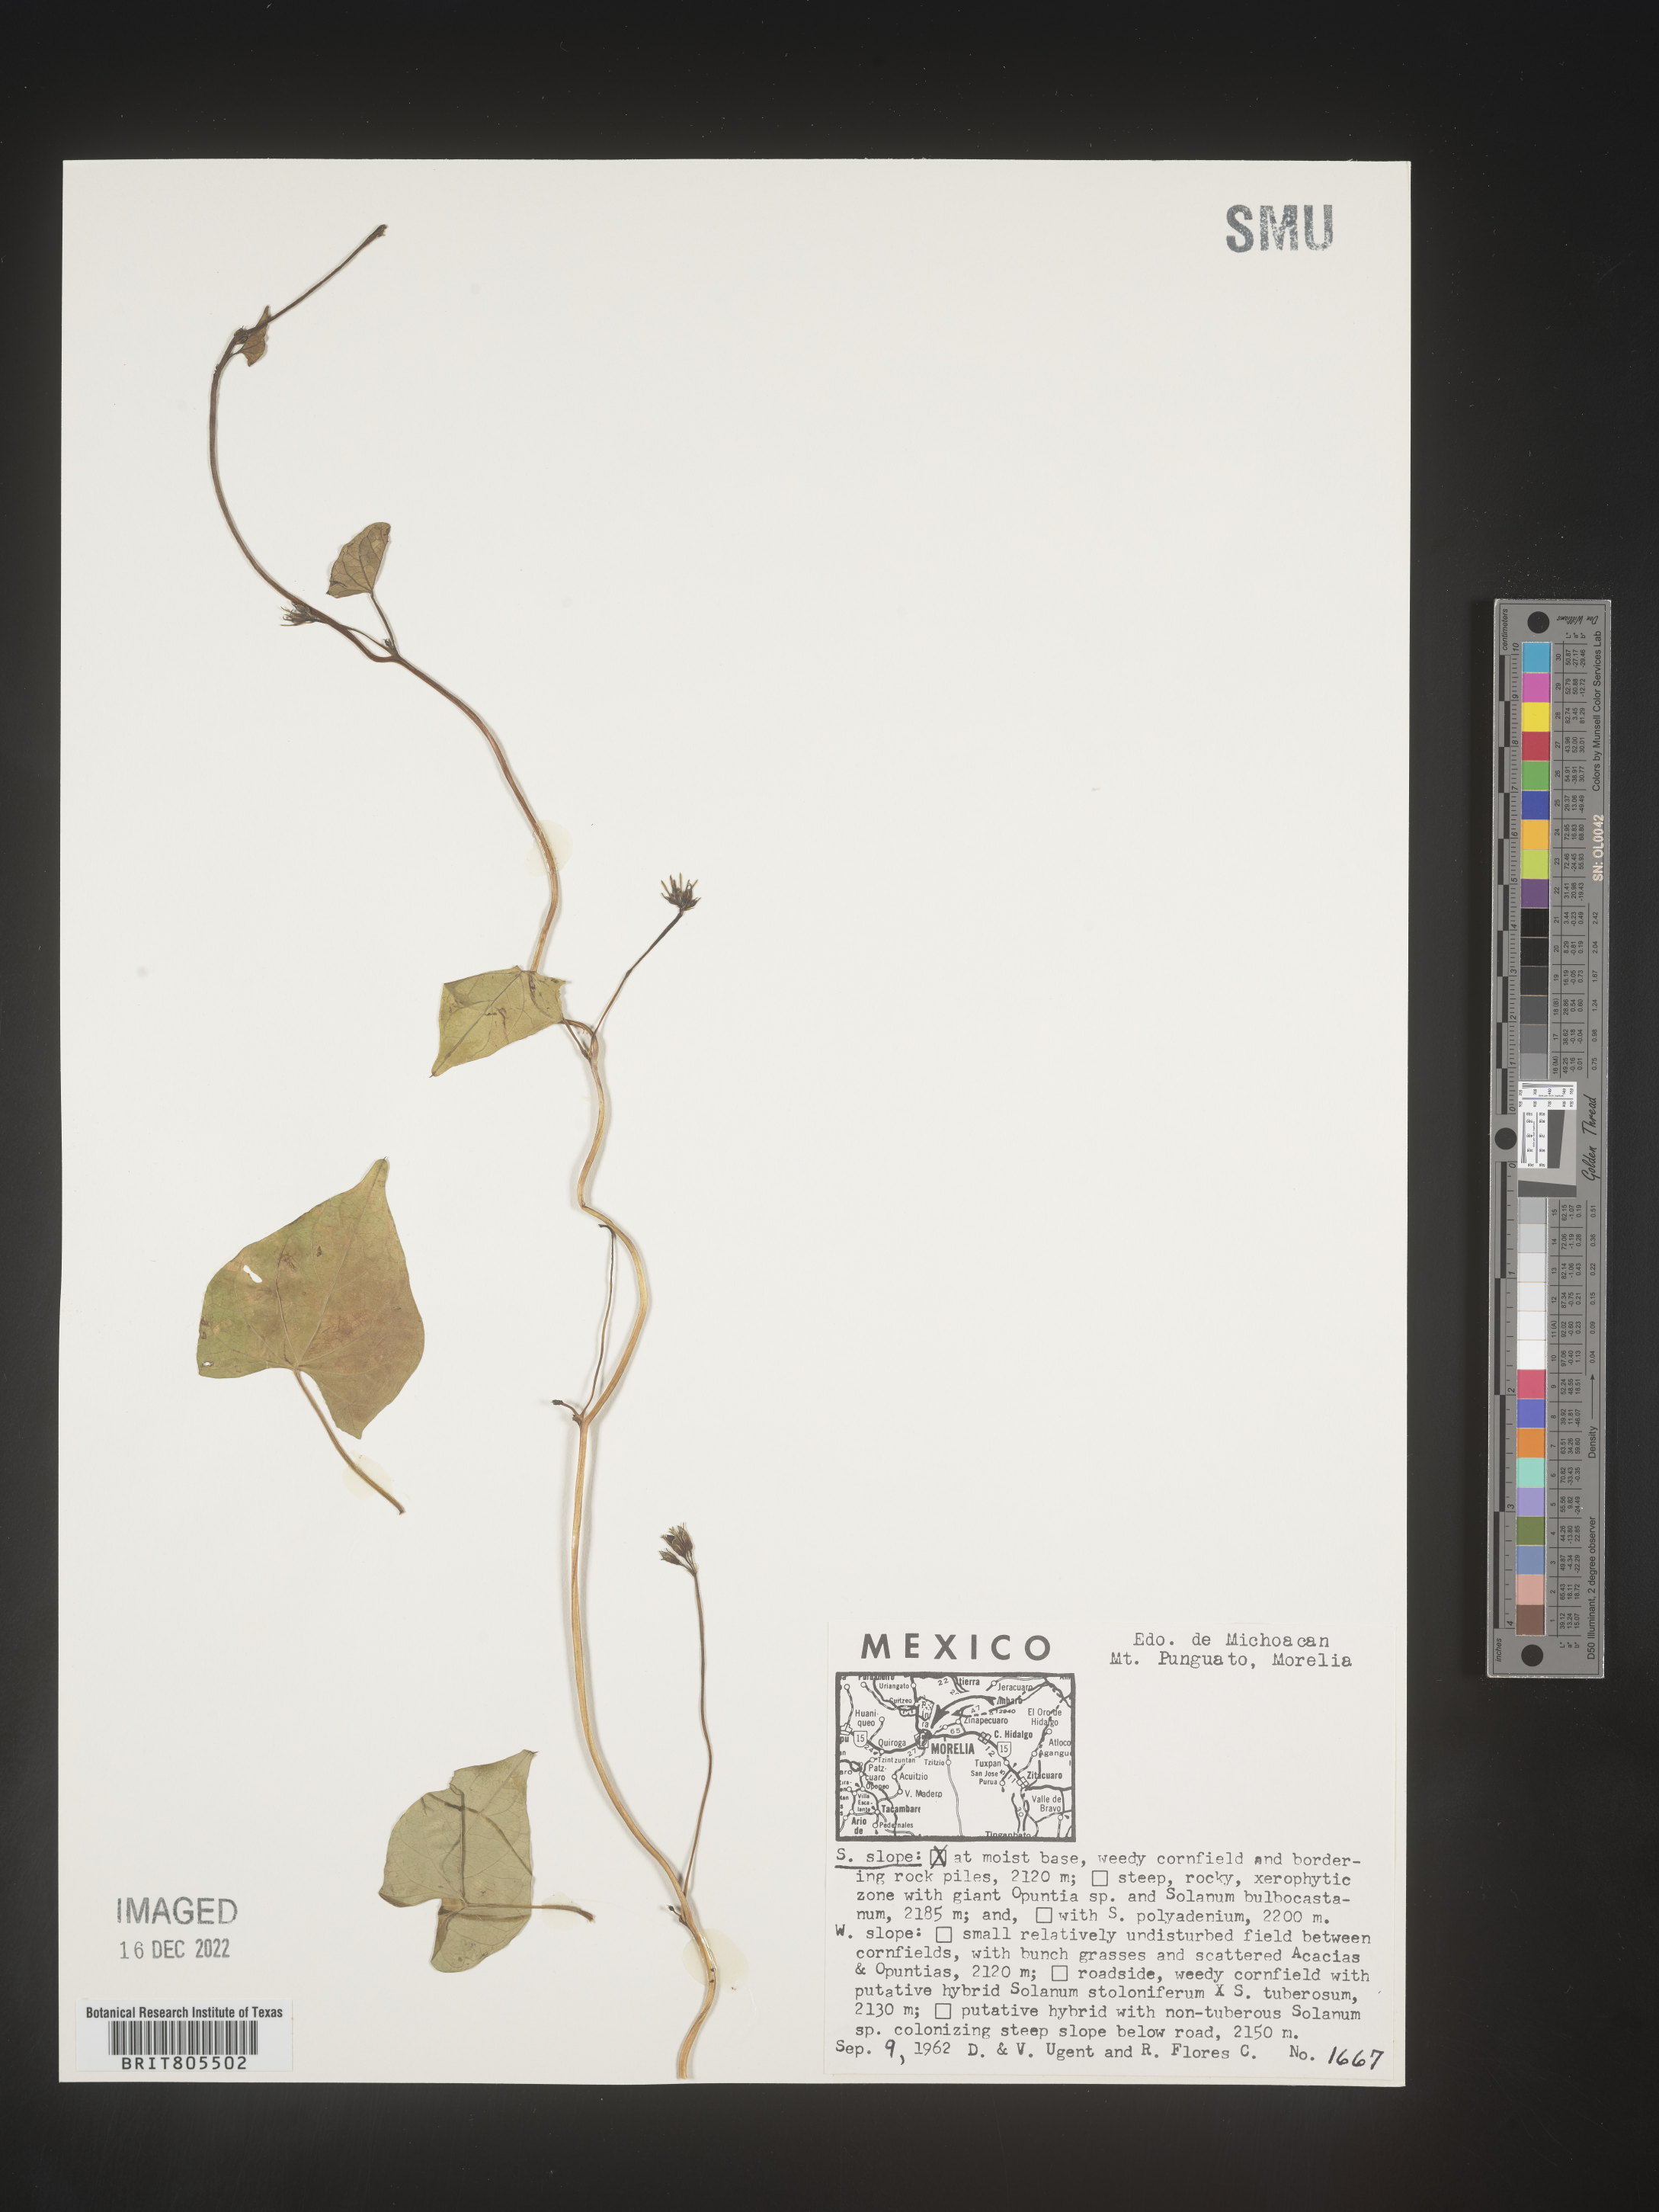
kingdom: Plantae
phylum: Tracheophyta
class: Magnoliopsida
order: Solanales
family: Convolvulaceae
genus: Ipomoea
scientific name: Ipomoea
